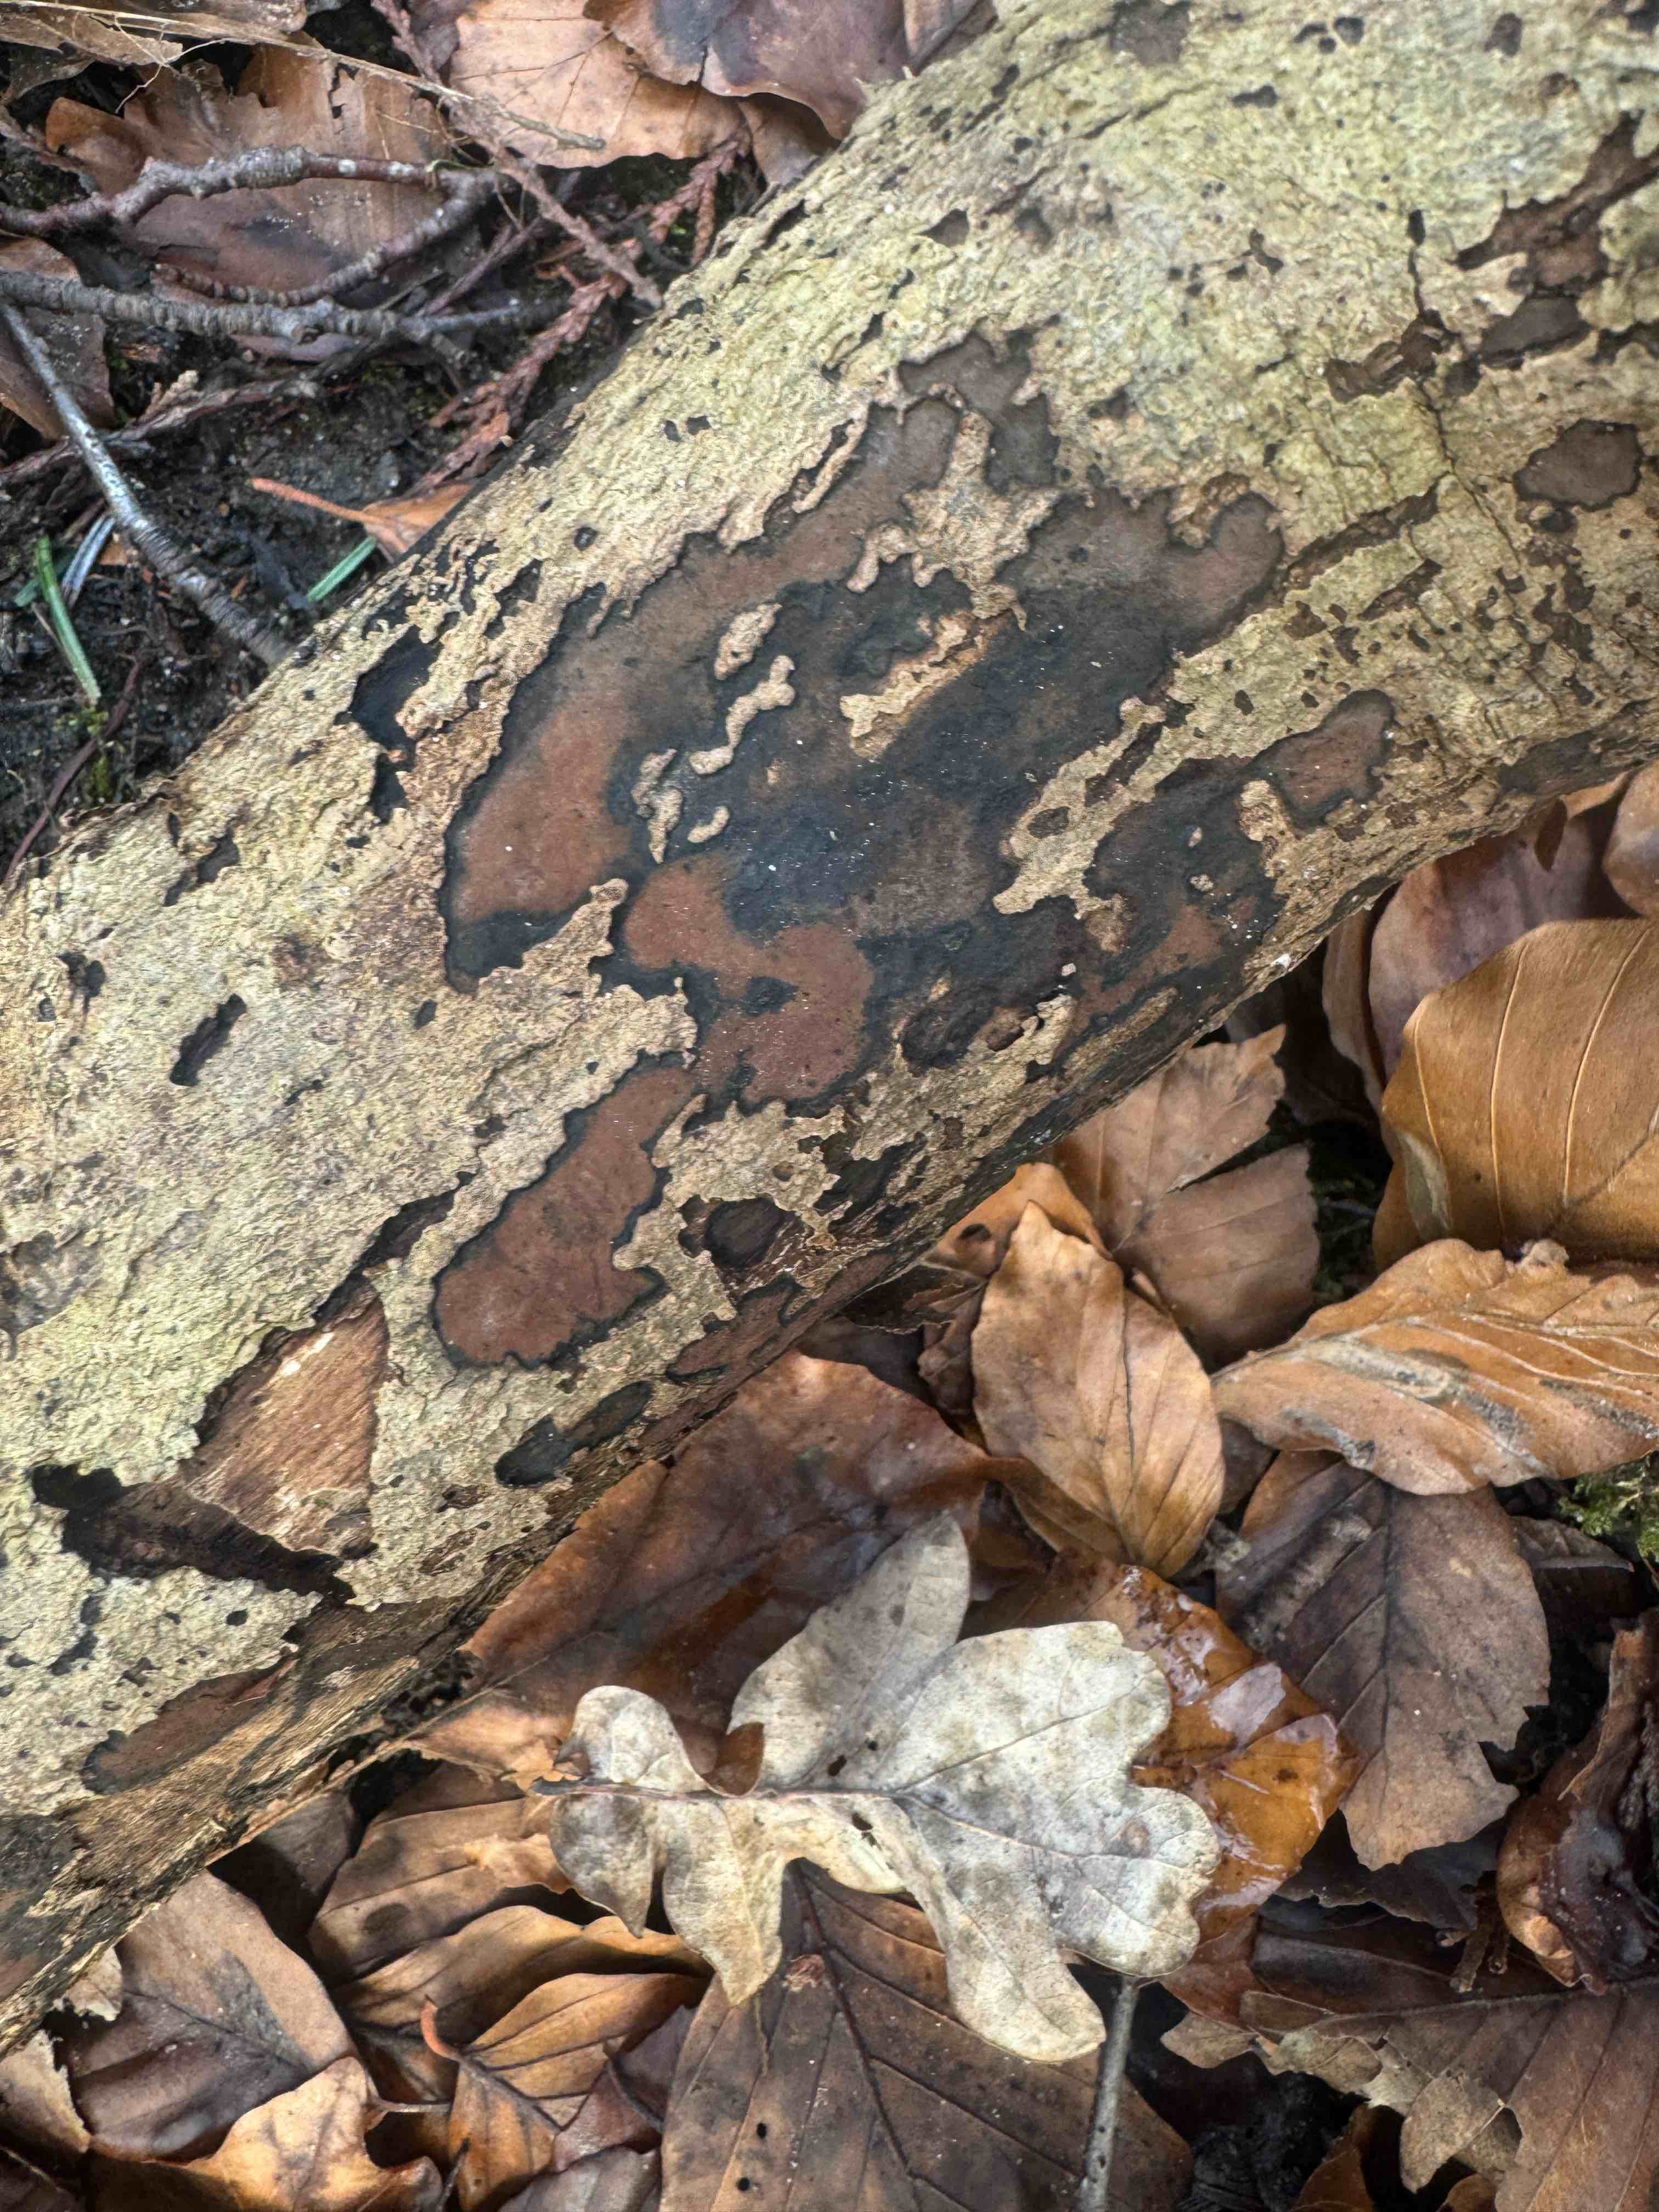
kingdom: Fungi
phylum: Ascomycota
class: Sordariomycetes
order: Xylariales
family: Hypoxylaceae
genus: Hypoxylon
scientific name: Hypoxylon petriniae
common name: nedsænket kulbær
